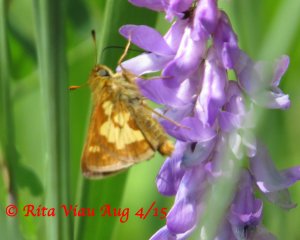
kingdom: Animalia
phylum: Arthropoda
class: Insecta
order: Lepidoptera
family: Hesperiidae
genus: Polites
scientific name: Polites coras
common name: Peck's Skipper
